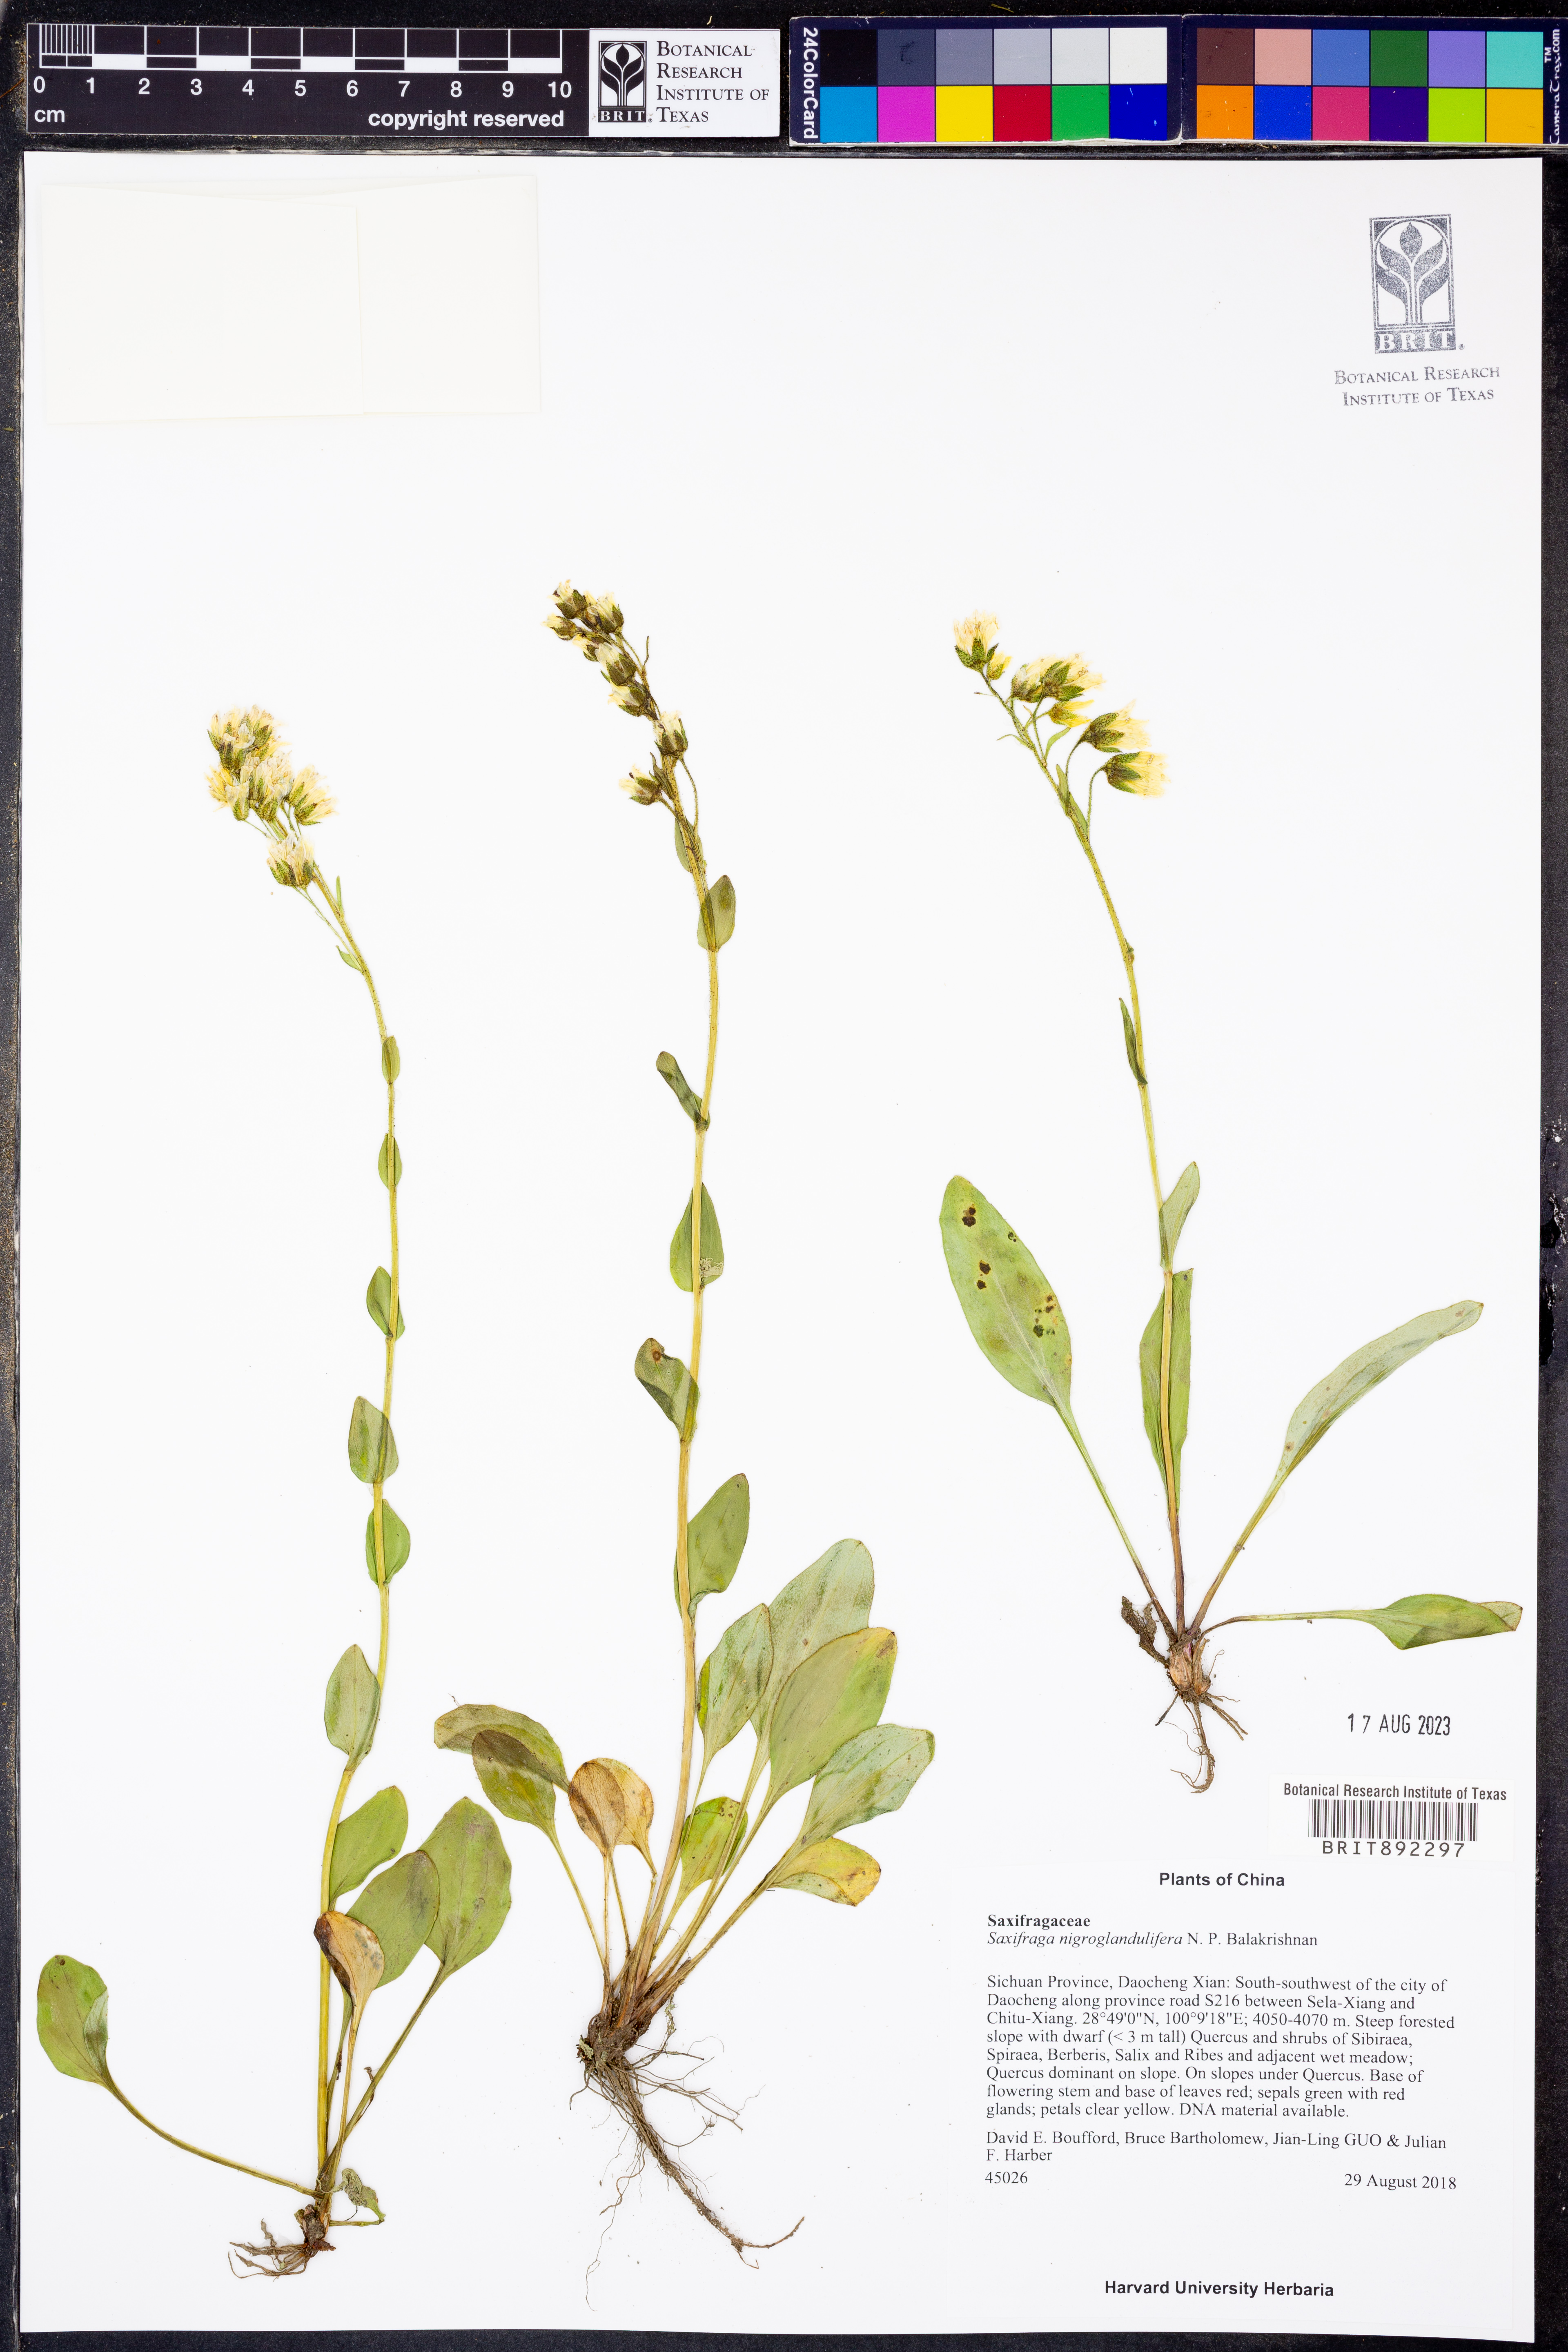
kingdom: Plantae
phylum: Tracheophyta
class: Magnoliopsida
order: Saxifragales
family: Saxifragaceae
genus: Saxifraga
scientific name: Saxifraga nigroglandulifera
